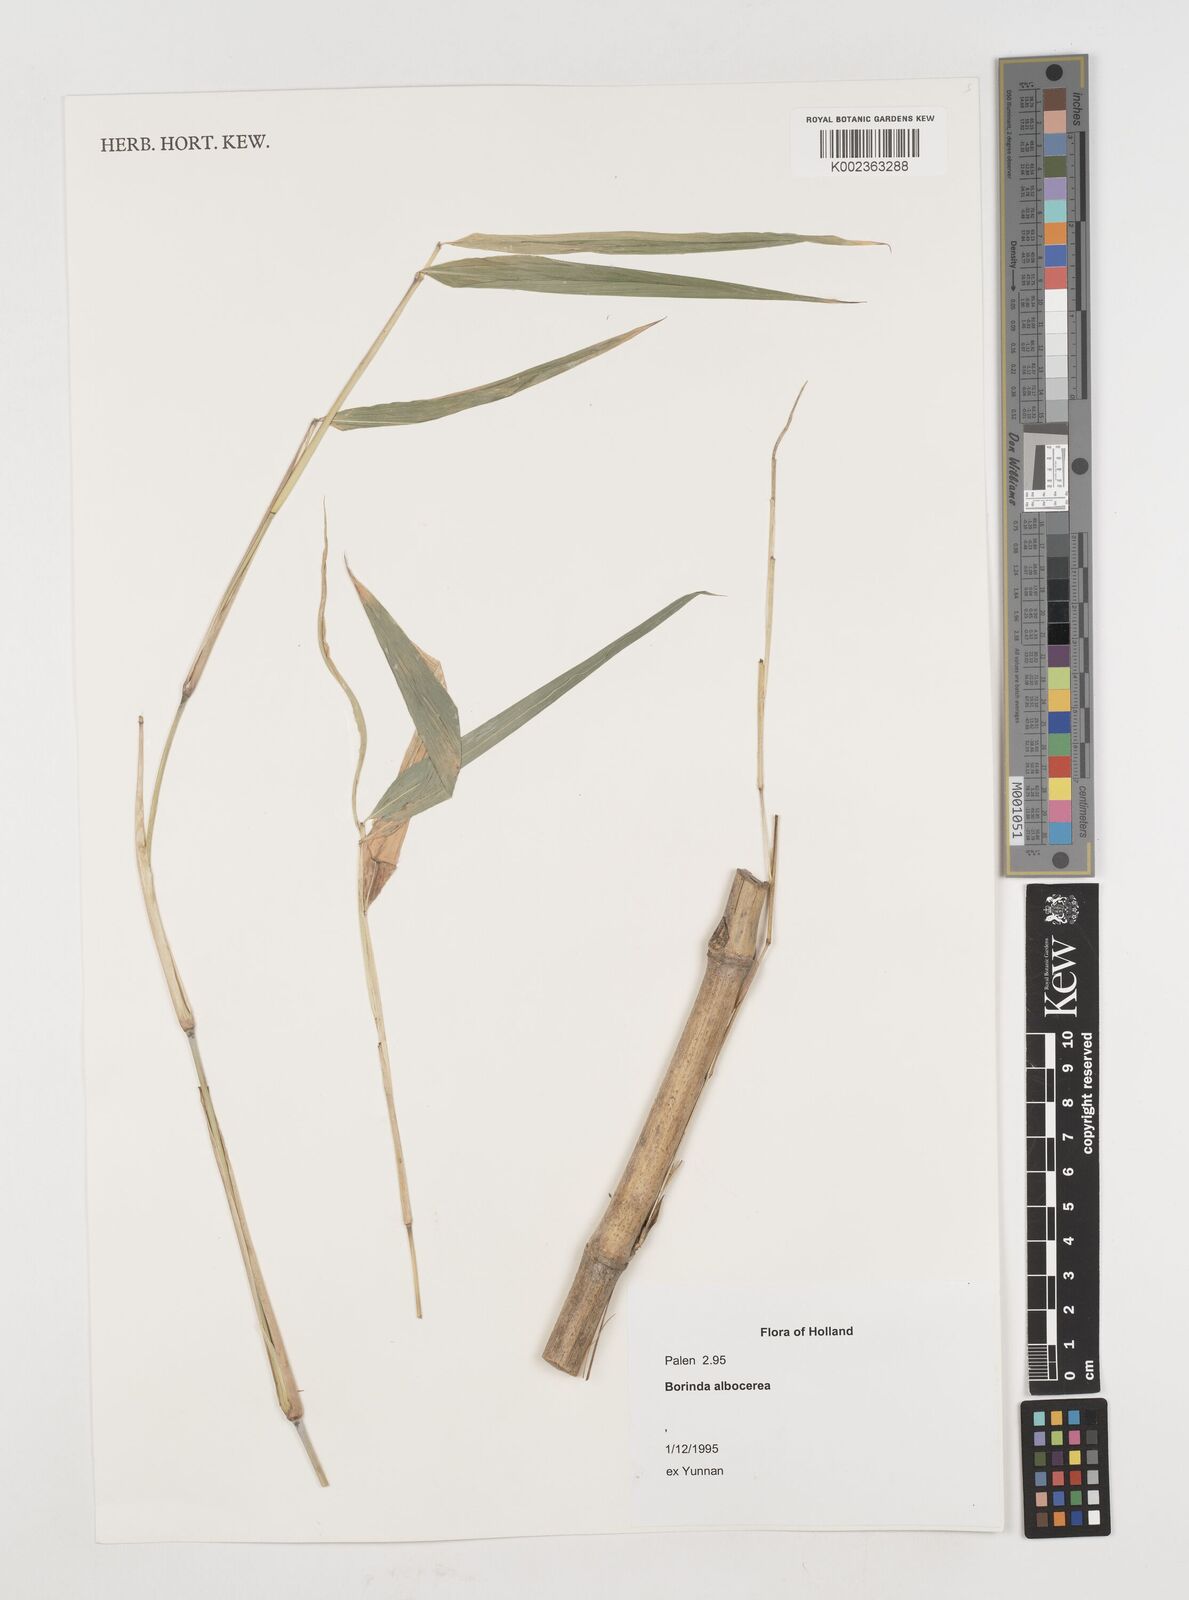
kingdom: Plantae
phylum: Tracheophyta
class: Liliopsida
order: Poales
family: Poaceae
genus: Borinda
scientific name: Borinda albocerea
